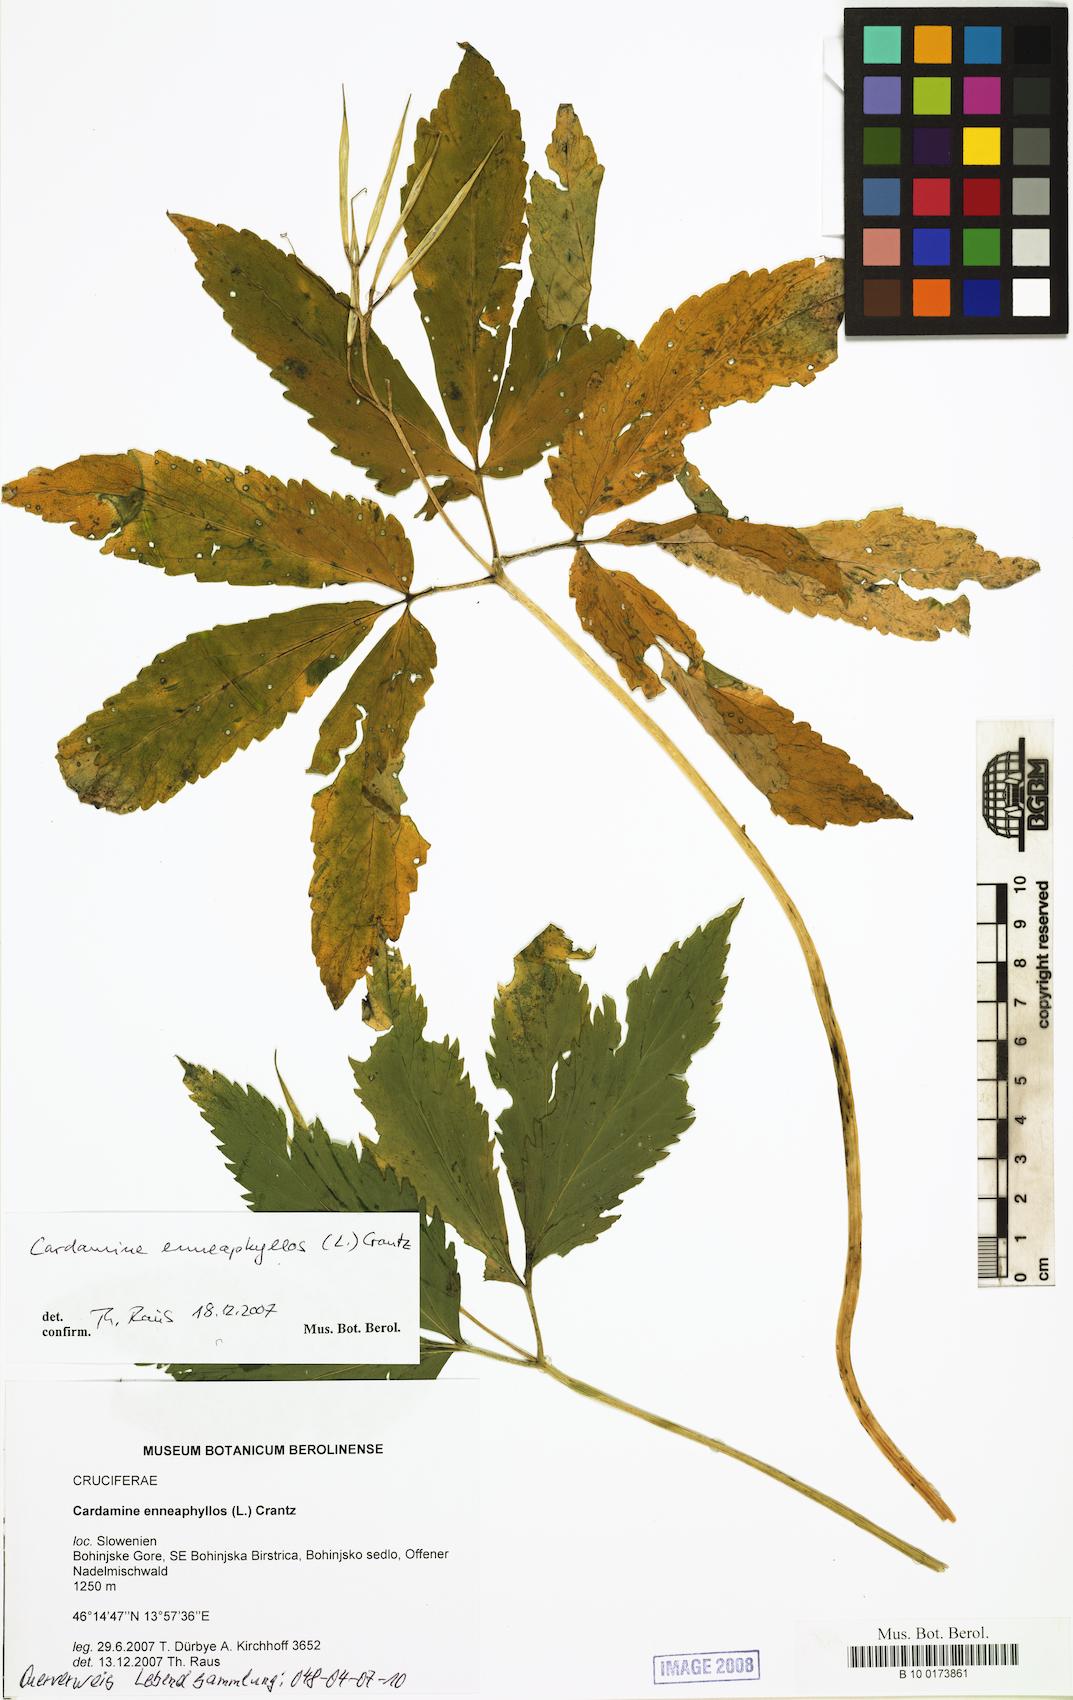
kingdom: Plantae
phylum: Tracheophyta
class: Magnoliopsida
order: Brassicales
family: Brassicaceae
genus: Cardamine
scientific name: Cardamine enneaphyllos
